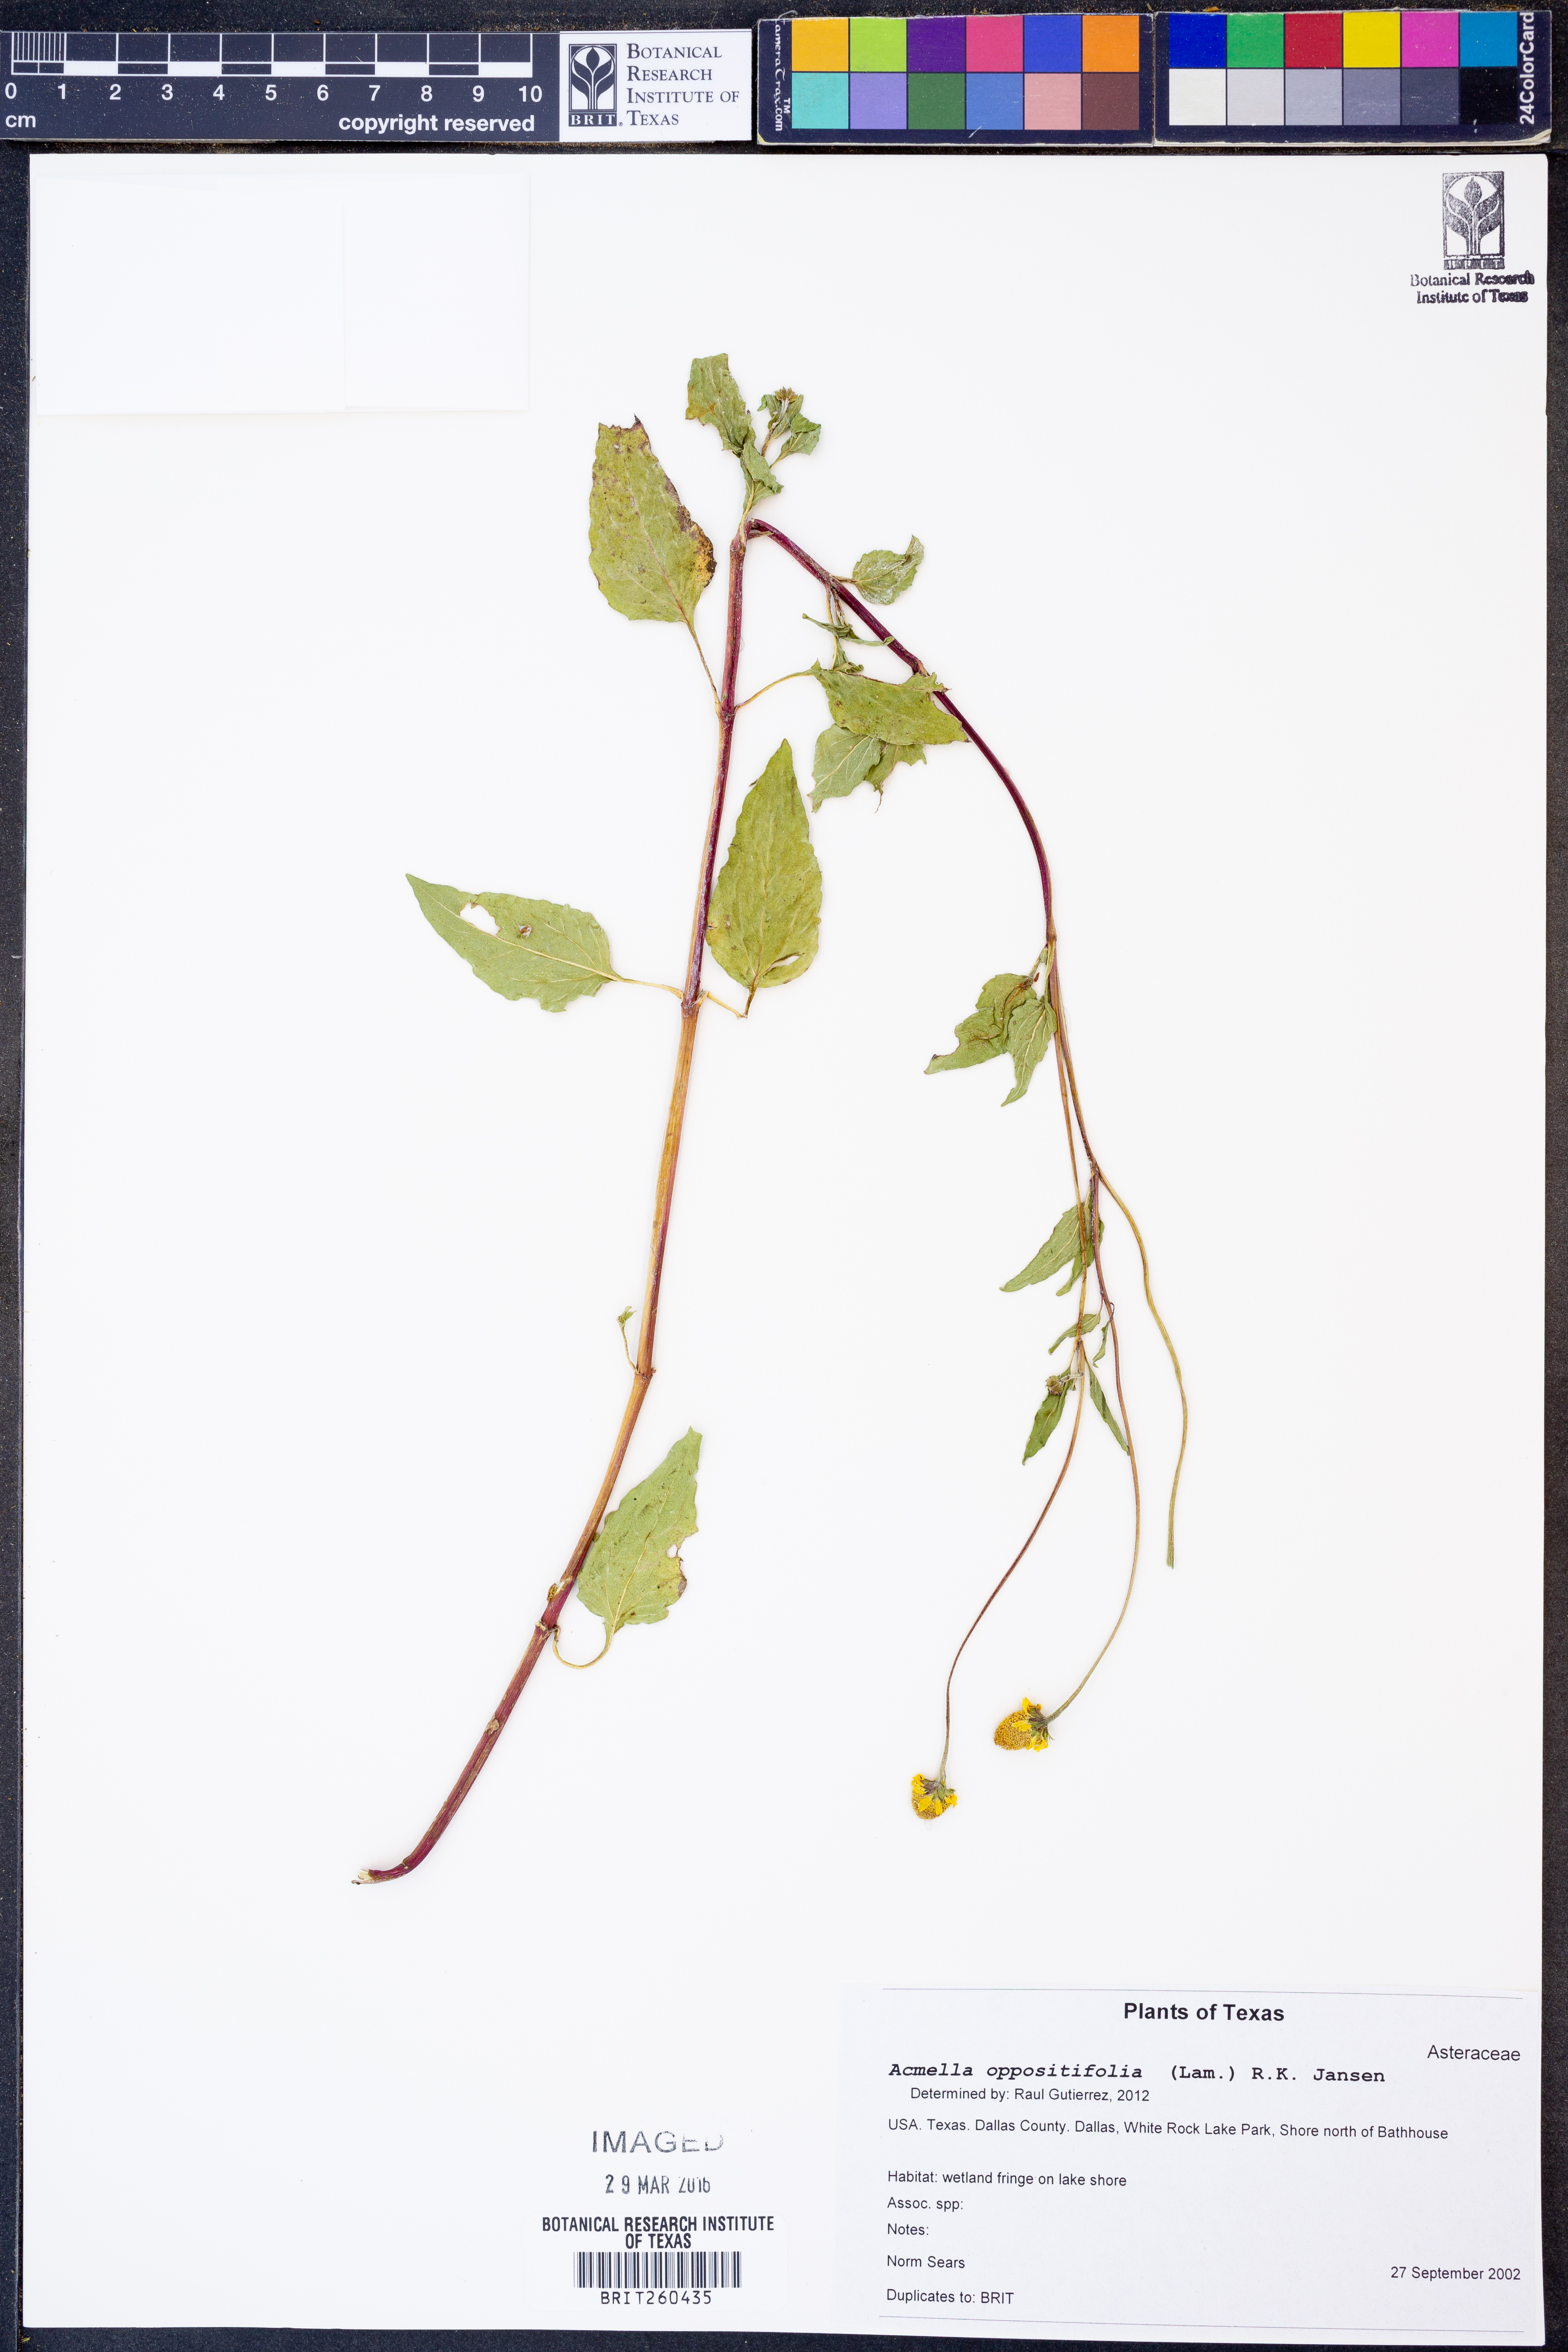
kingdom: Plantae
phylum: Tracheophyta
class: Magnoliopsida
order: Asterales
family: Asteraceae
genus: Heliopsis
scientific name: Heliopsis buphthalmoides
